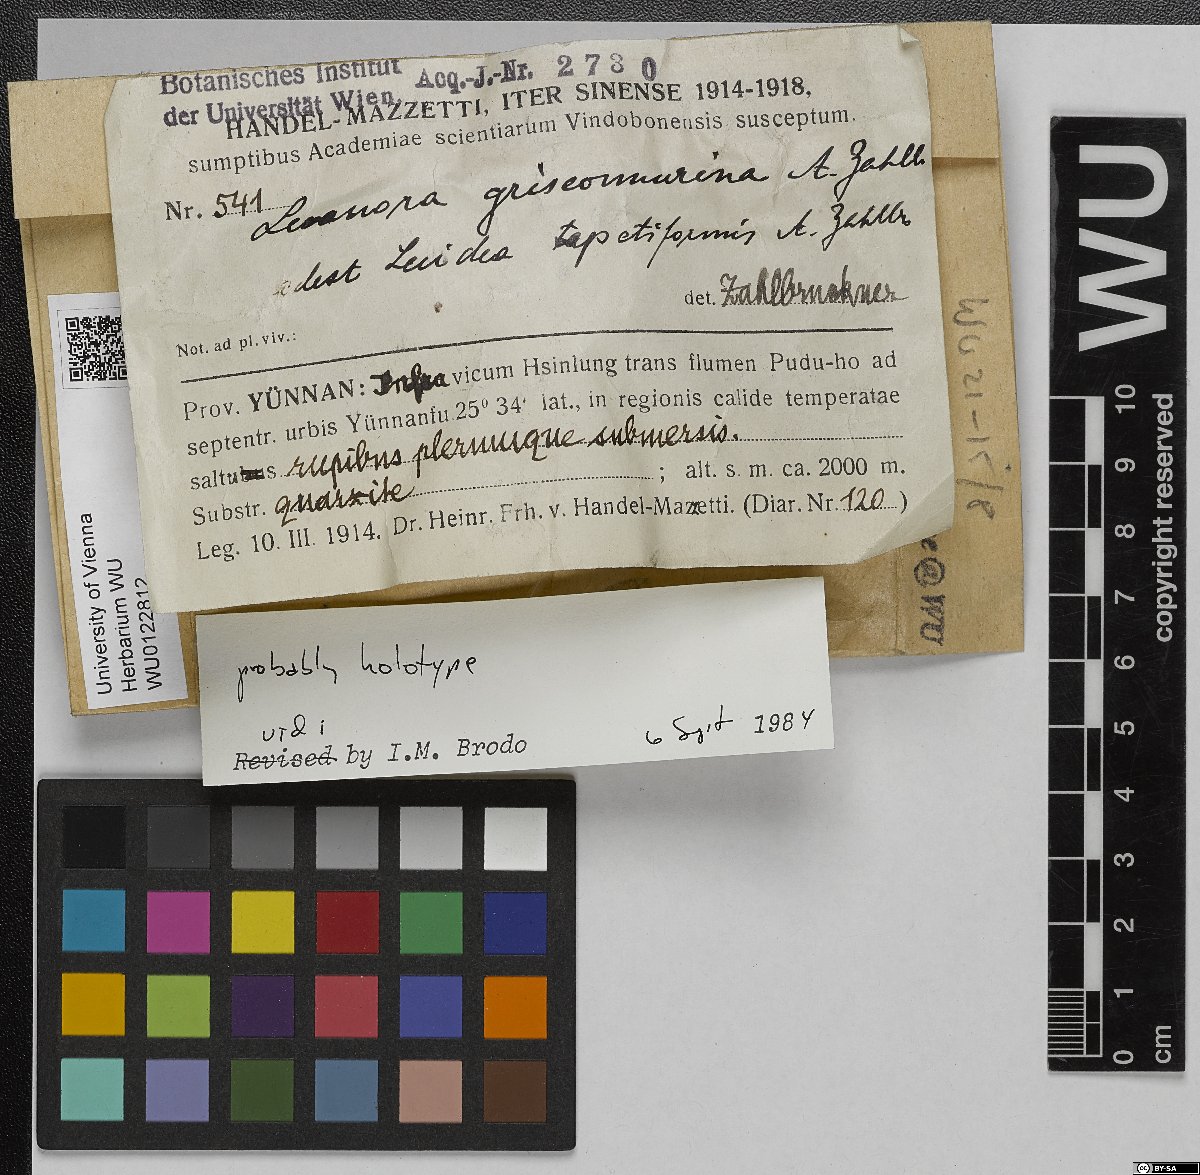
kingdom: Fungi
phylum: Ascomycota
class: Lecanoromycetes
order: Lecanorales
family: Lecanoraceae
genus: Lecanora
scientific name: Lecanora
